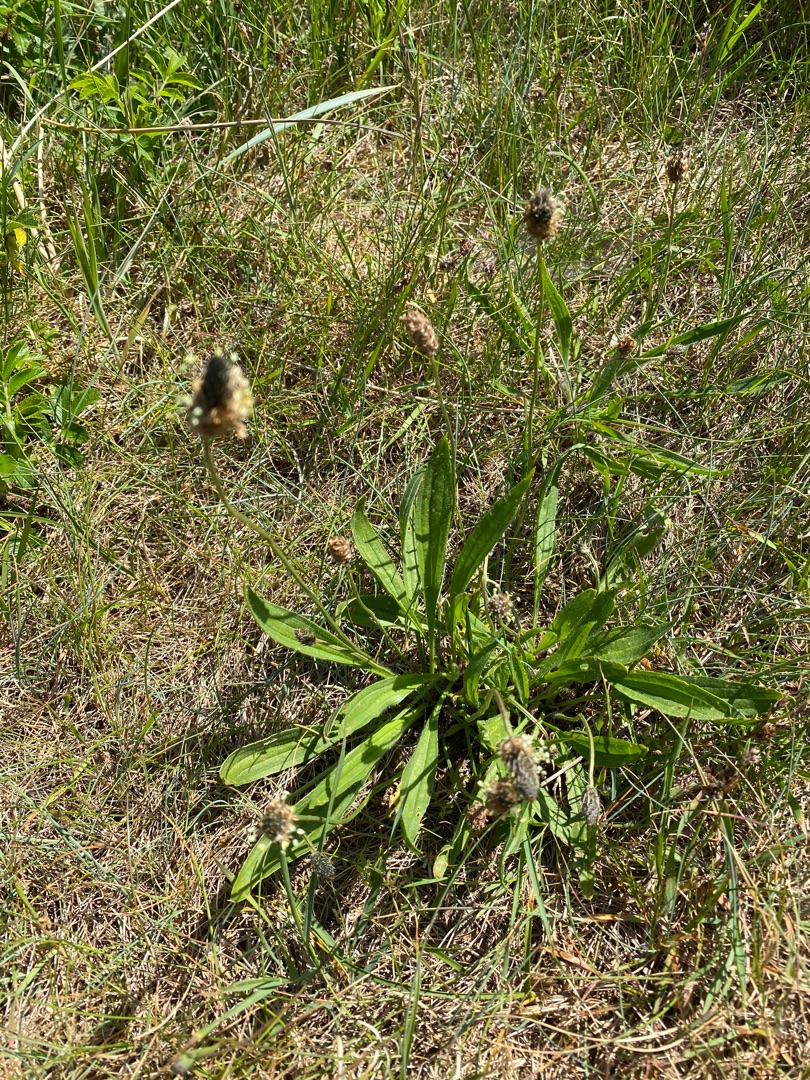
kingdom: Plantae
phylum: Tracheophyta
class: Magnoliopsida
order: Lamiales
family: Plantaginaceae
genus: Plantago
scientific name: Plantago lanceolata
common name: Lancet-vejbred
